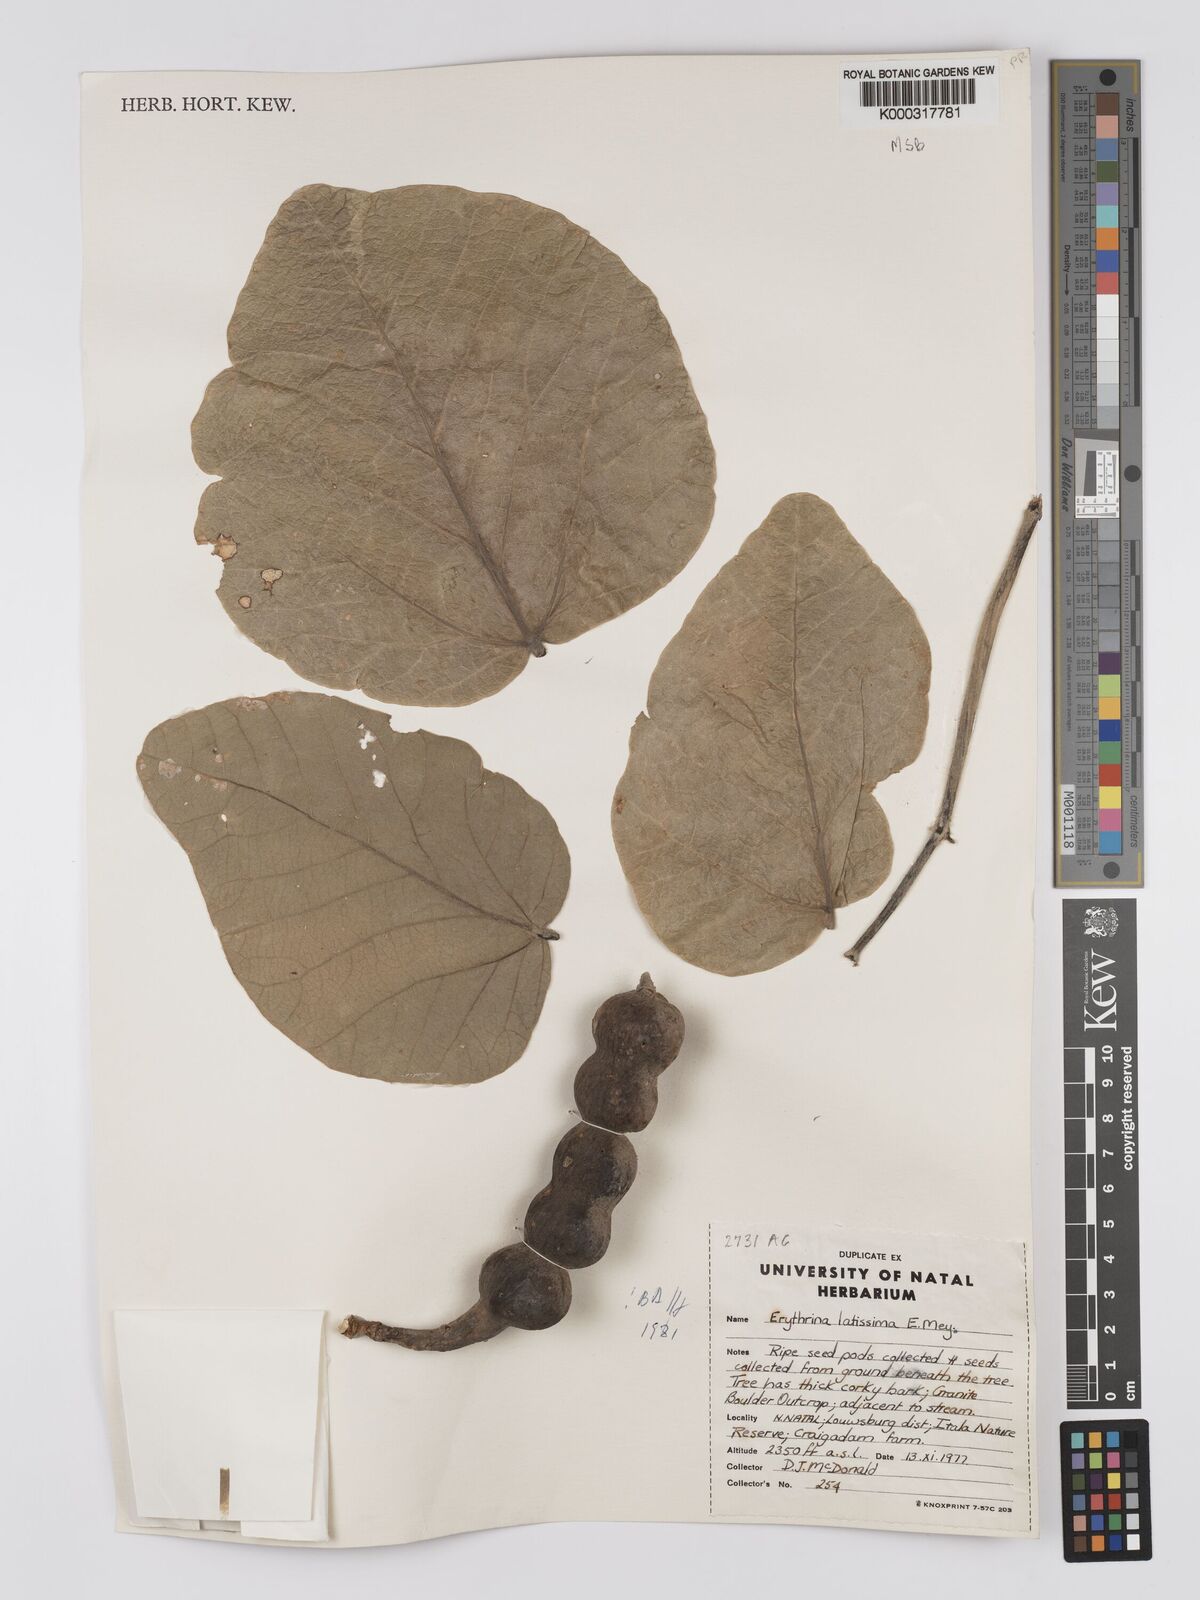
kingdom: Plantae
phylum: Tracheophyta
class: Magnoliopsida
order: Fabales
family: Fabaceae
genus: Erythrina
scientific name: Erythrina latissima
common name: Broad-leaved coral tree
